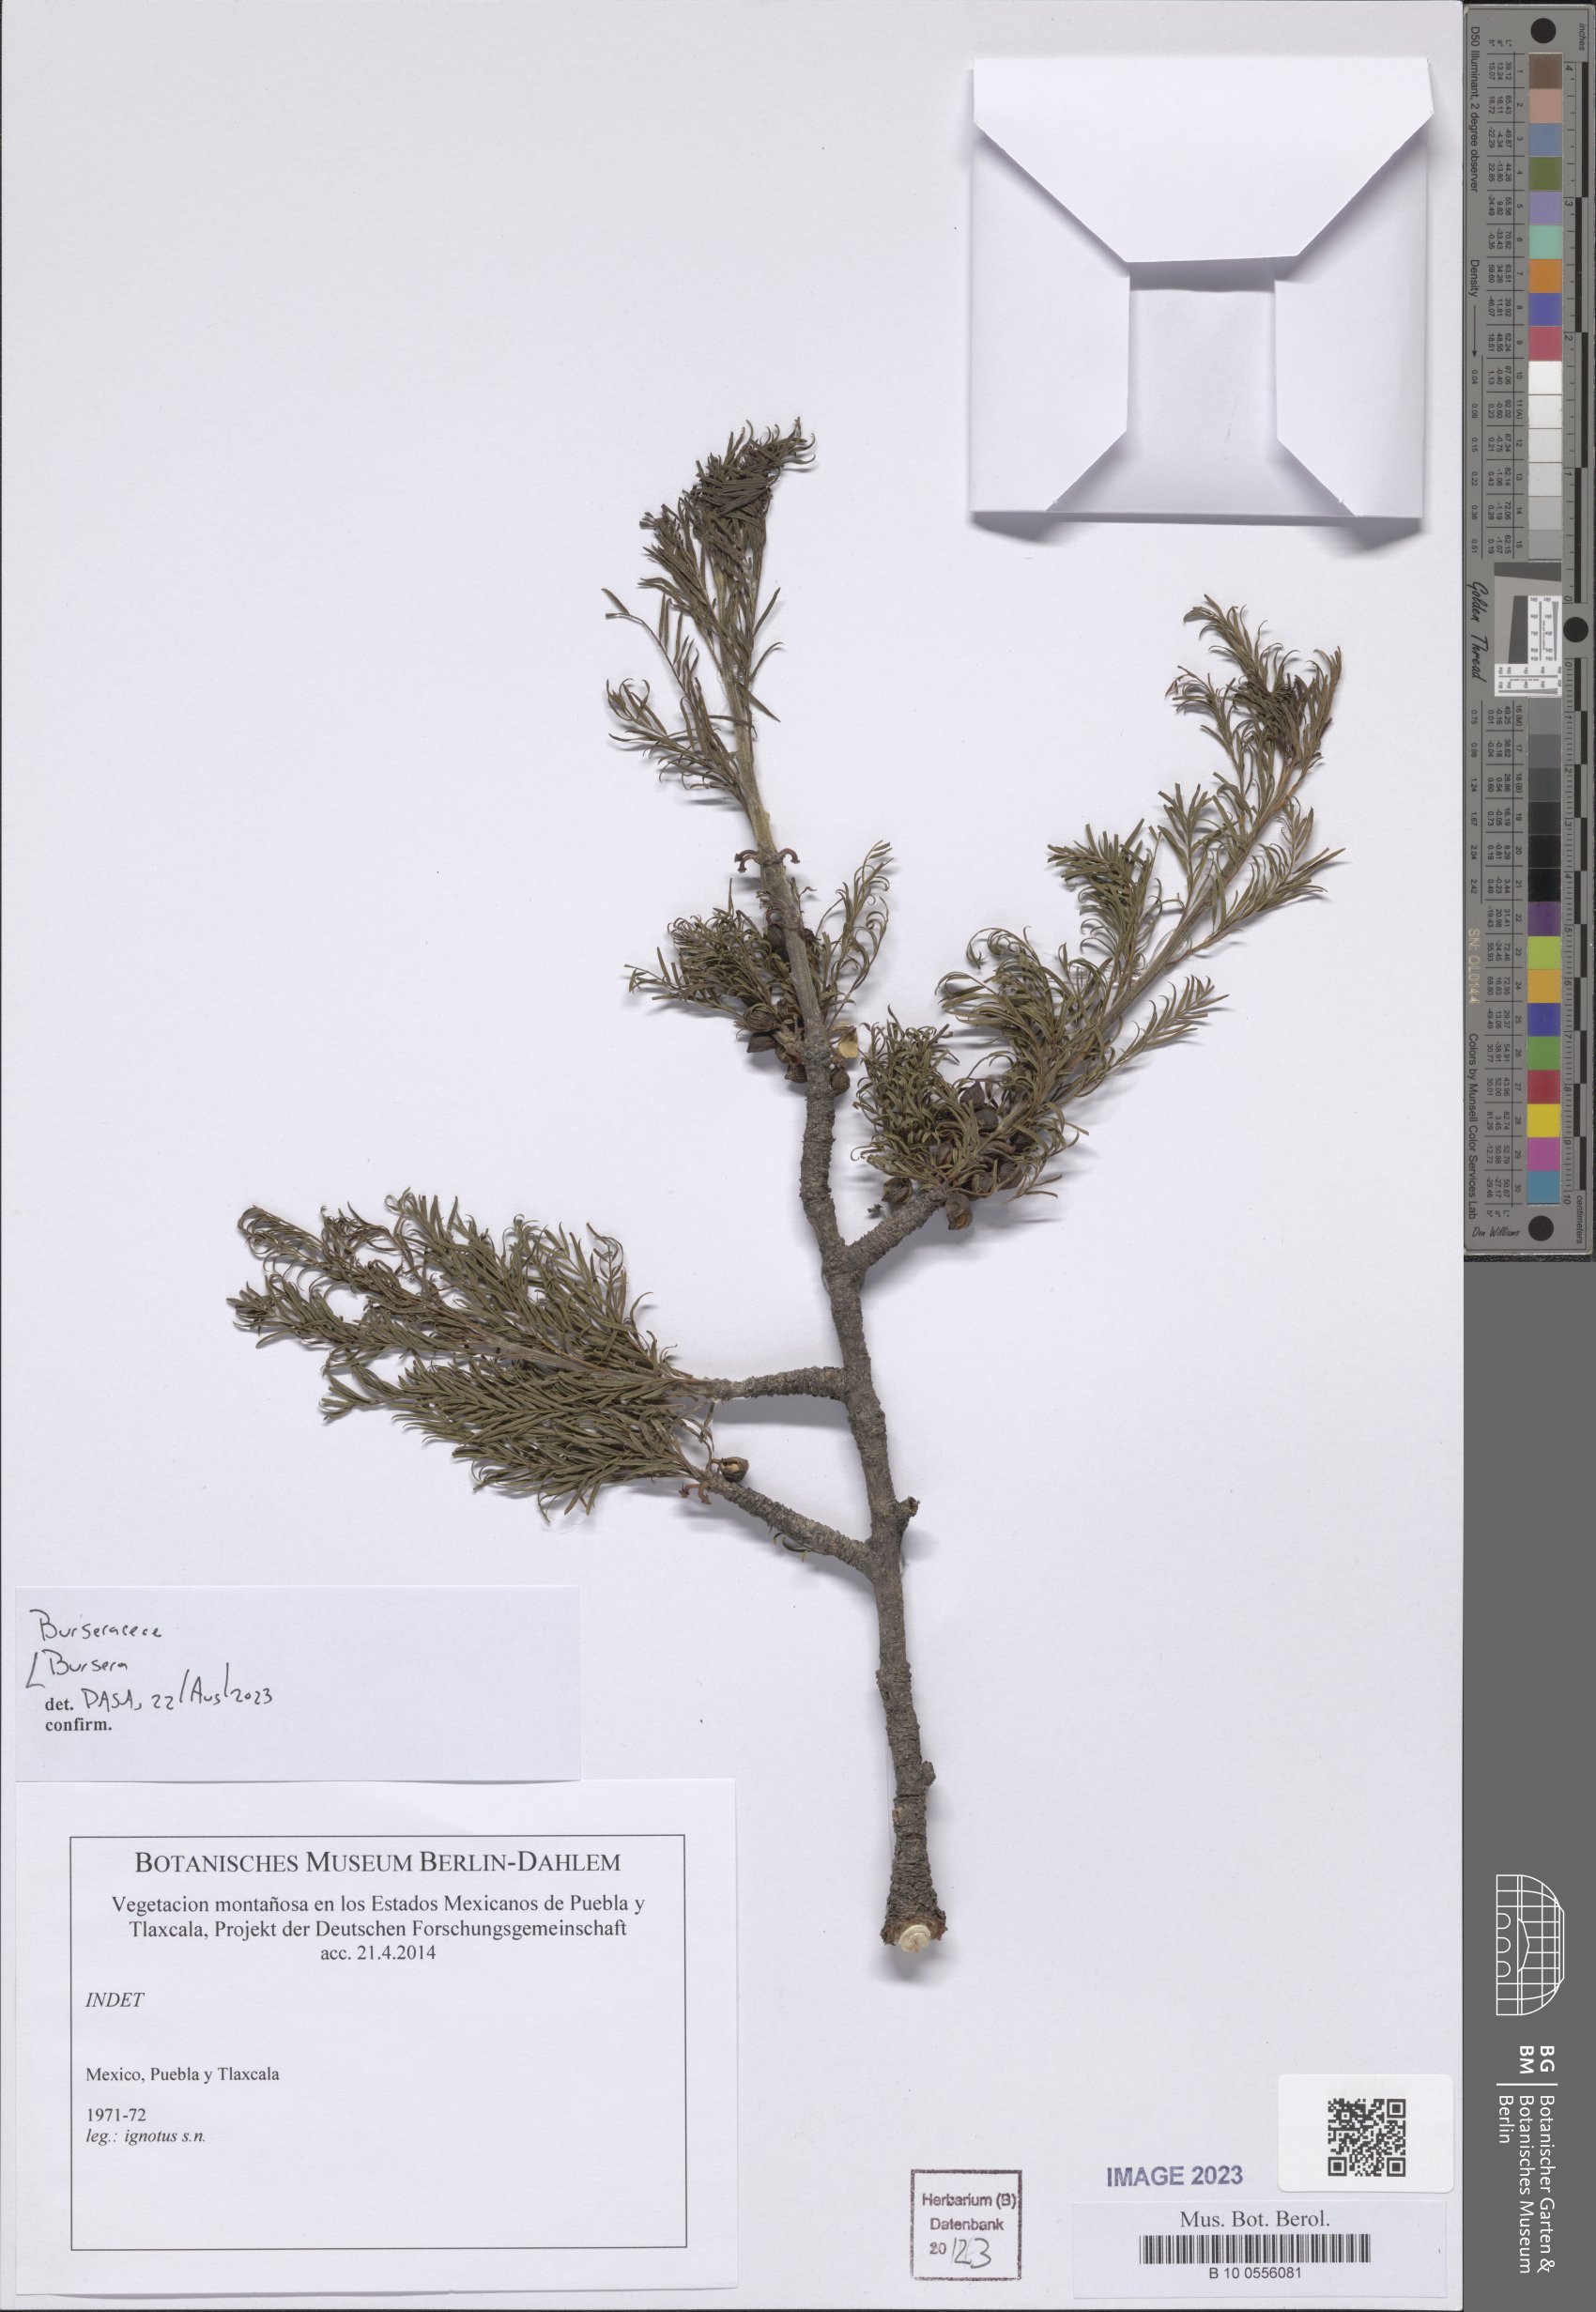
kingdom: Plantae
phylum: Tracheophyta
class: Magnoliopsida
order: Sapindales
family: Burseraceae
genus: Bursera
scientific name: Bursera
